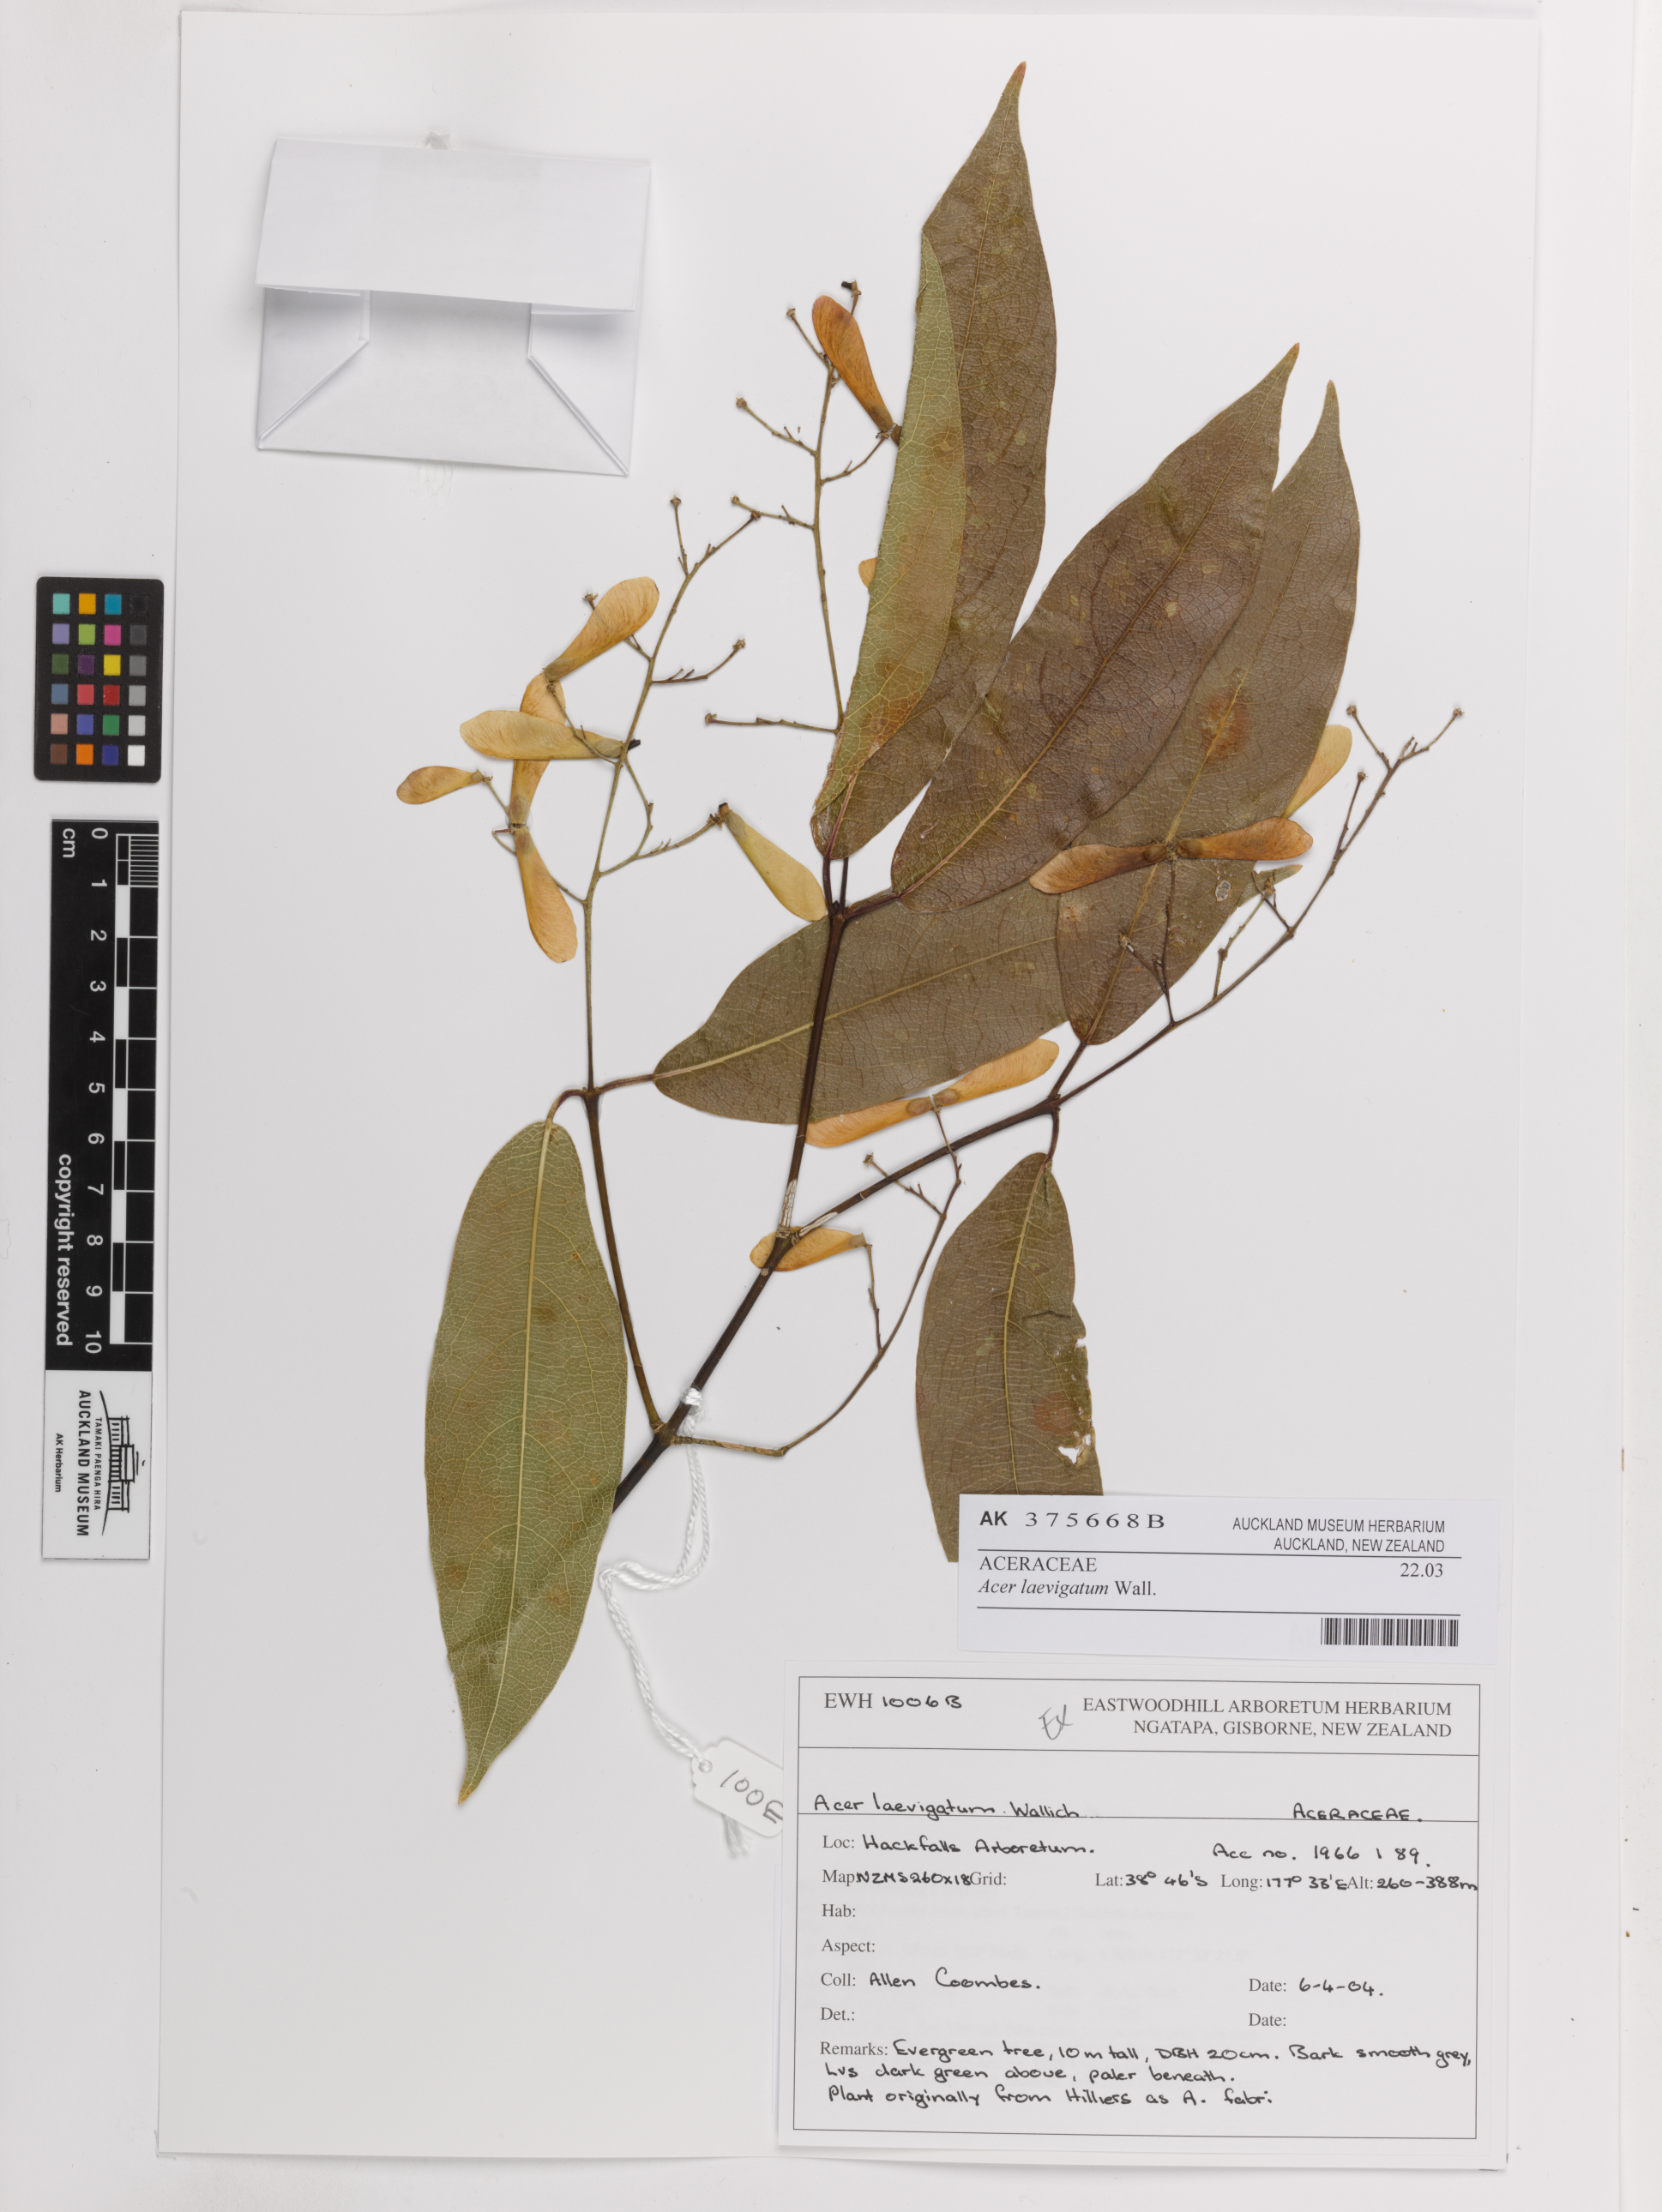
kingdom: Plantae
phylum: Tracheophyta
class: Magnoliopsida
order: Sapindales
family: Sapindaceae
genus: Acer
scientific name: Acer laevigatum
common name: Nepal maple
